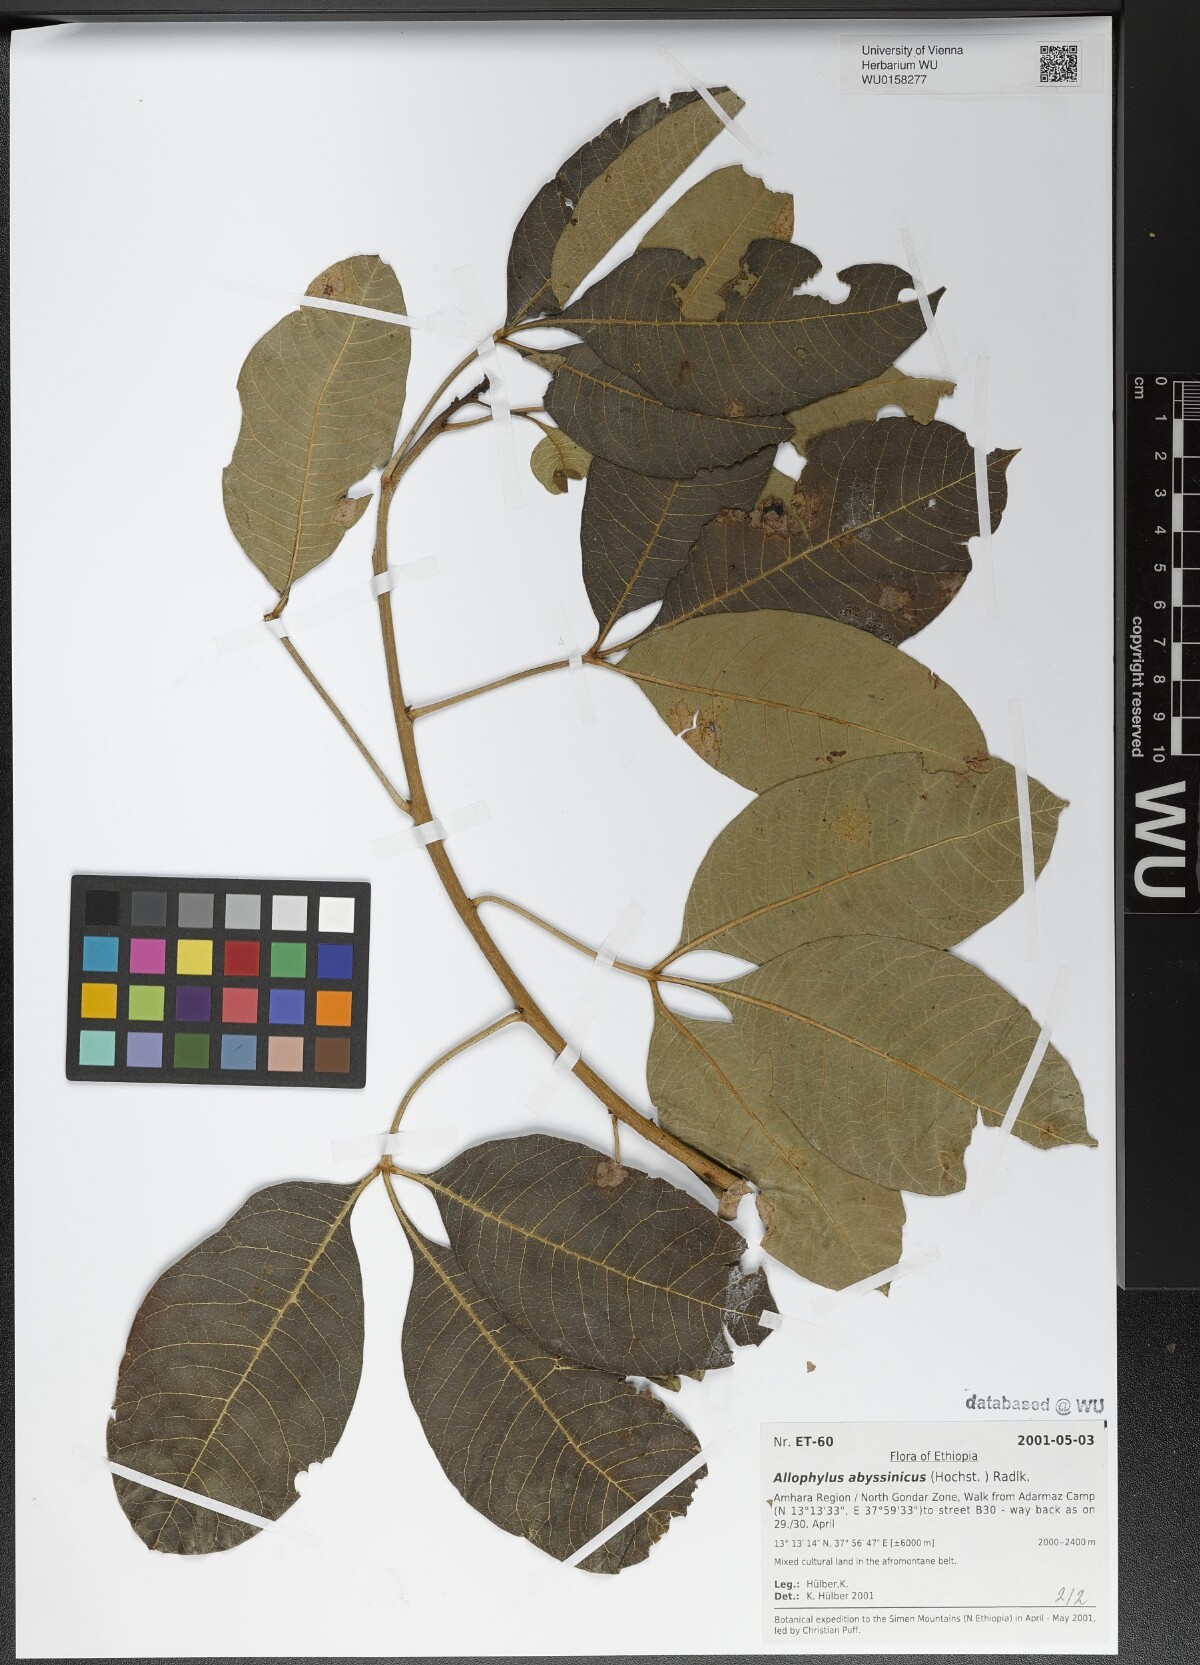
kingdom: Plantae
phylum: Tracheophyta
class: Magnoliopsida
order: Sapindales
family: Sapindaceae
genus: Allophylus
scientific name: Allophylus abyssinicus
